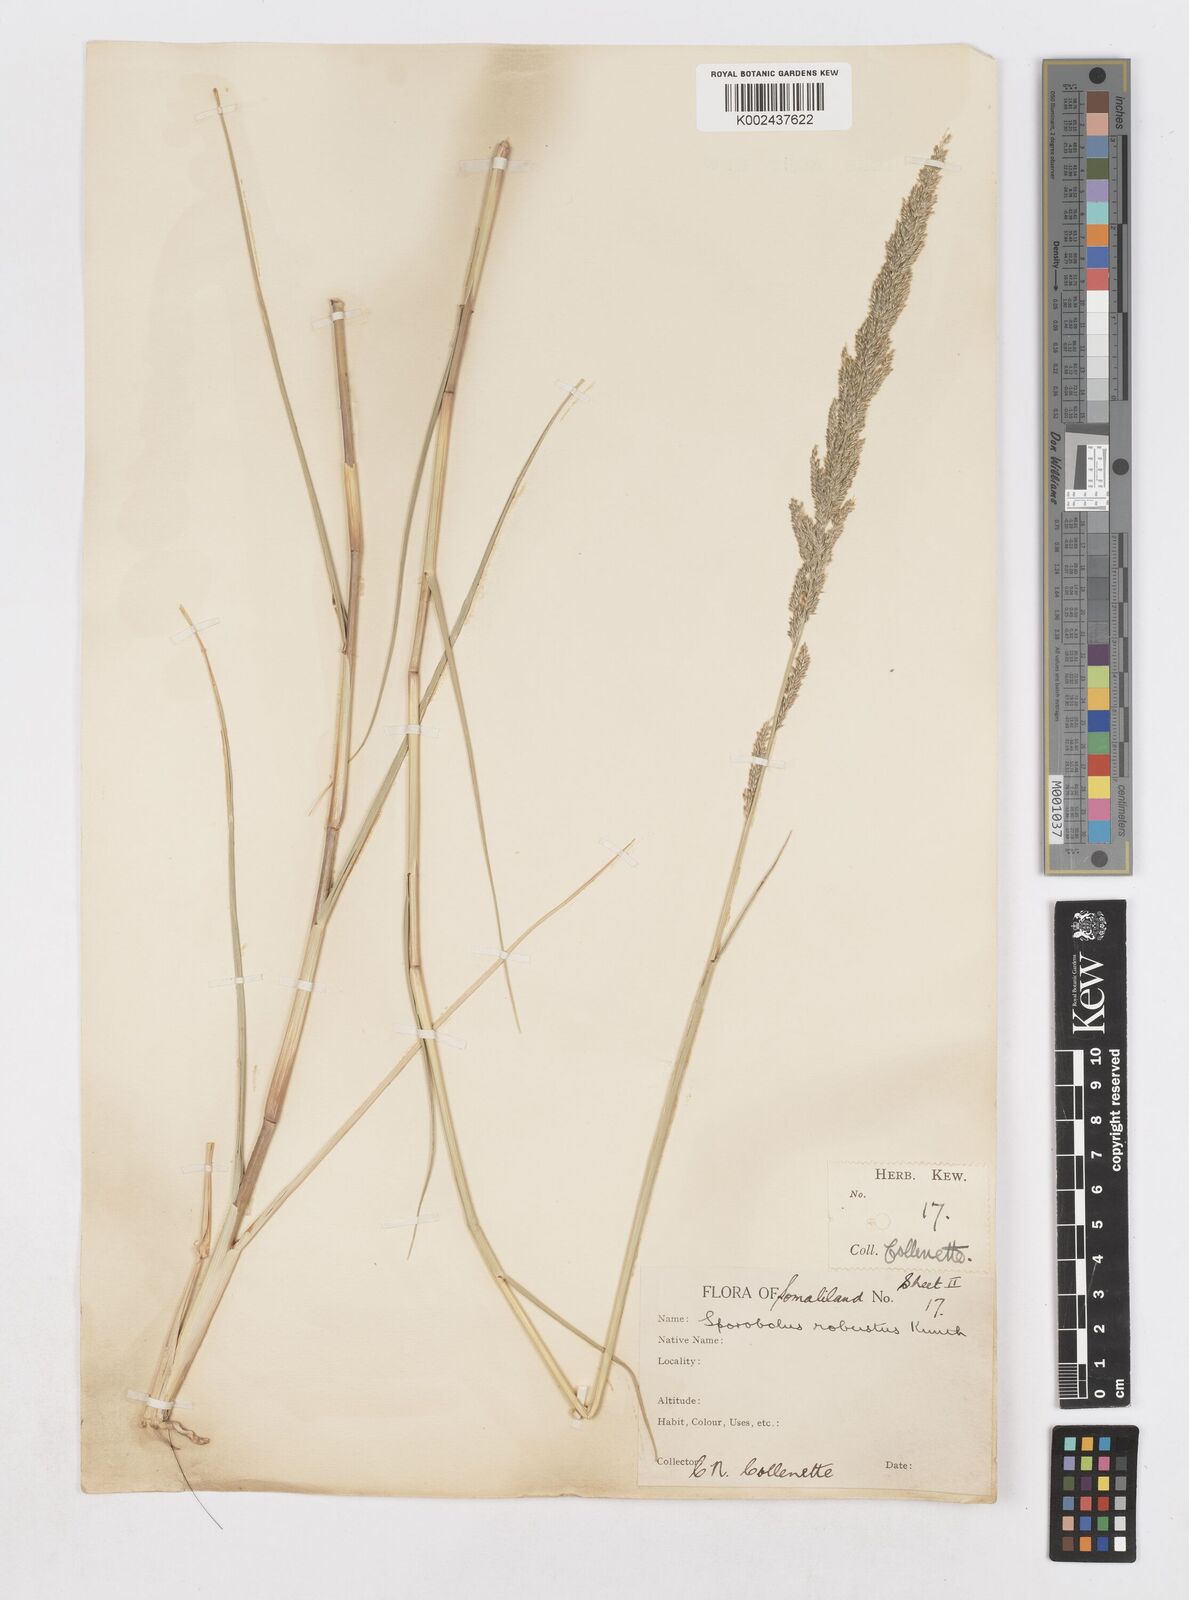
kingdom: Plantae
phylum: Tracheophyta
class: Liliopsida
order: Poales
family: Poaceae
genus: Sporobolus
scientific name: Sporobolus consimilis
